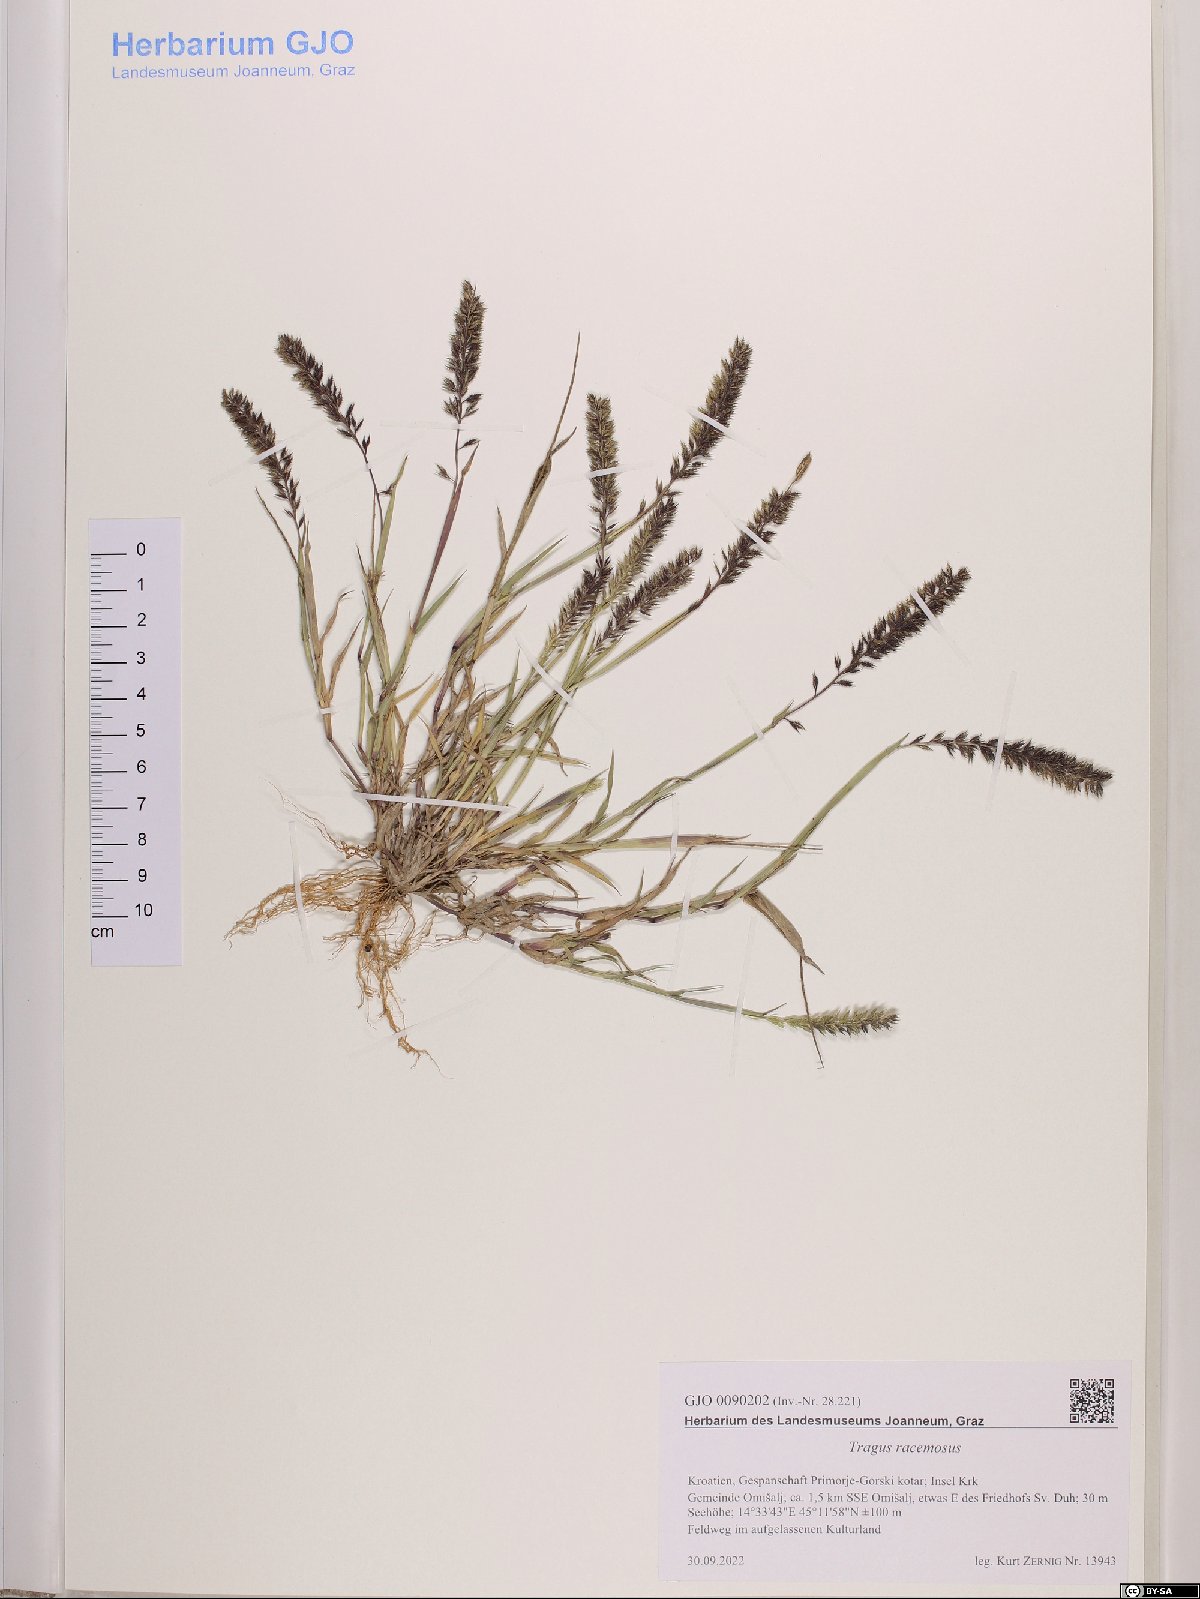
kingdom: Plantae
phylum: Tracheophyta
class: Liliopsida
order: Poales
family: Poaceae
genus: Tragus
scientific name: Tragus racemosus
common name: European bur-grass
